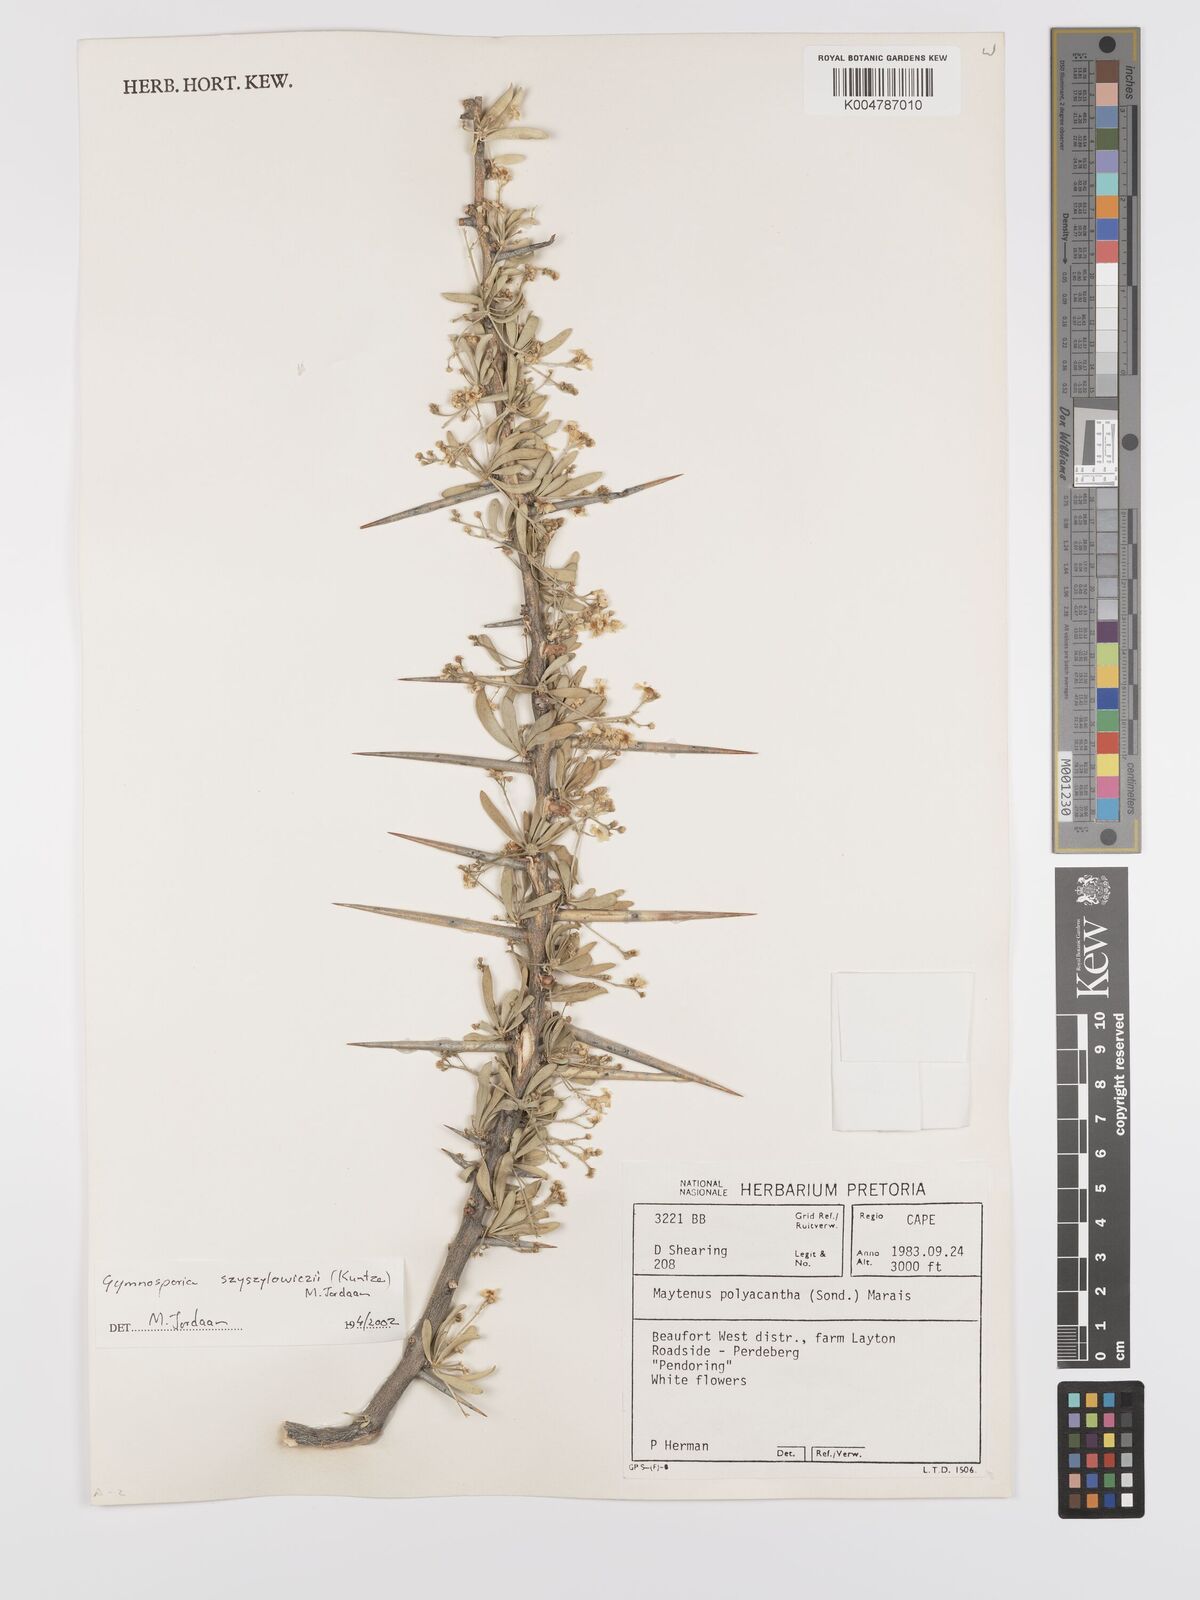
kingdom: Plantae
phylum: Tracheophyta
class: Magnoliopsida
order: Celastrales
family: Celastraceae
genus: Gymnosporia
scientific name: Gymnosporia
